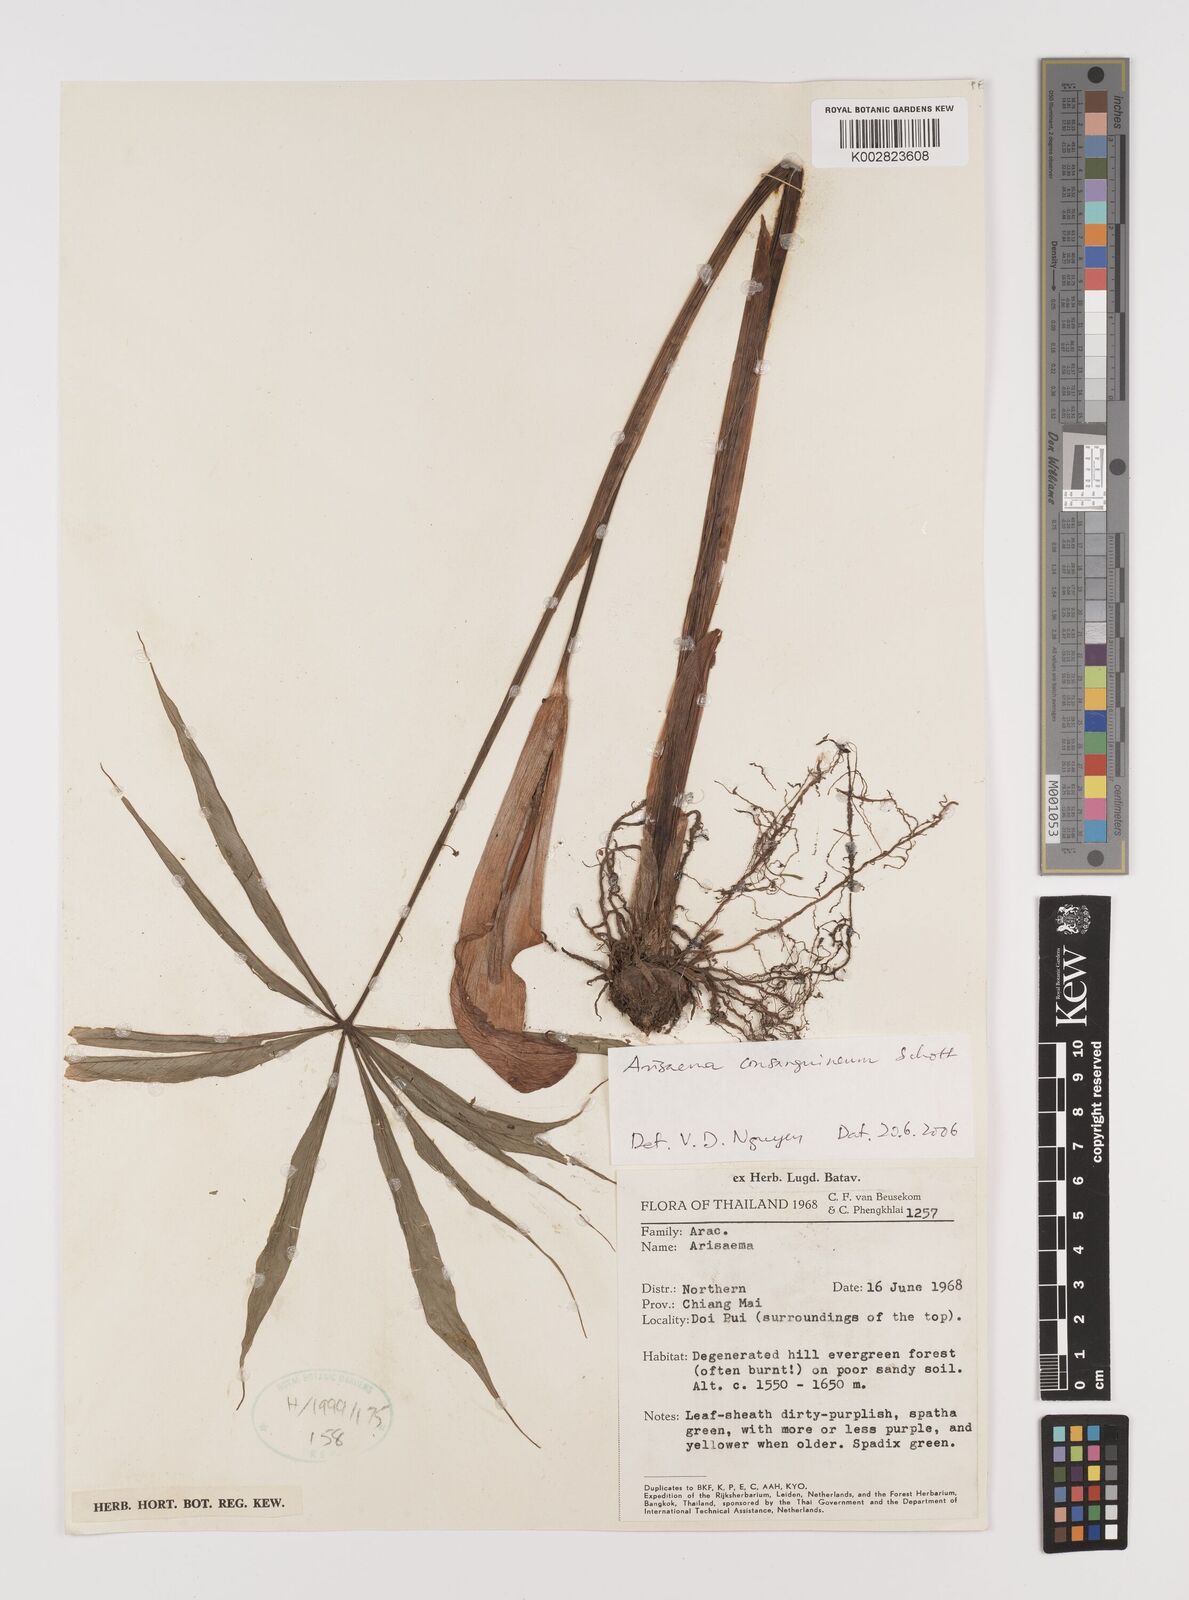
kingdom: Plantae
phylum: Tracheophyta
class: Liliopsida
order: Alismatales
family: Araceae
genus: Arisaema
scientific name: Arisaema consanguineum
